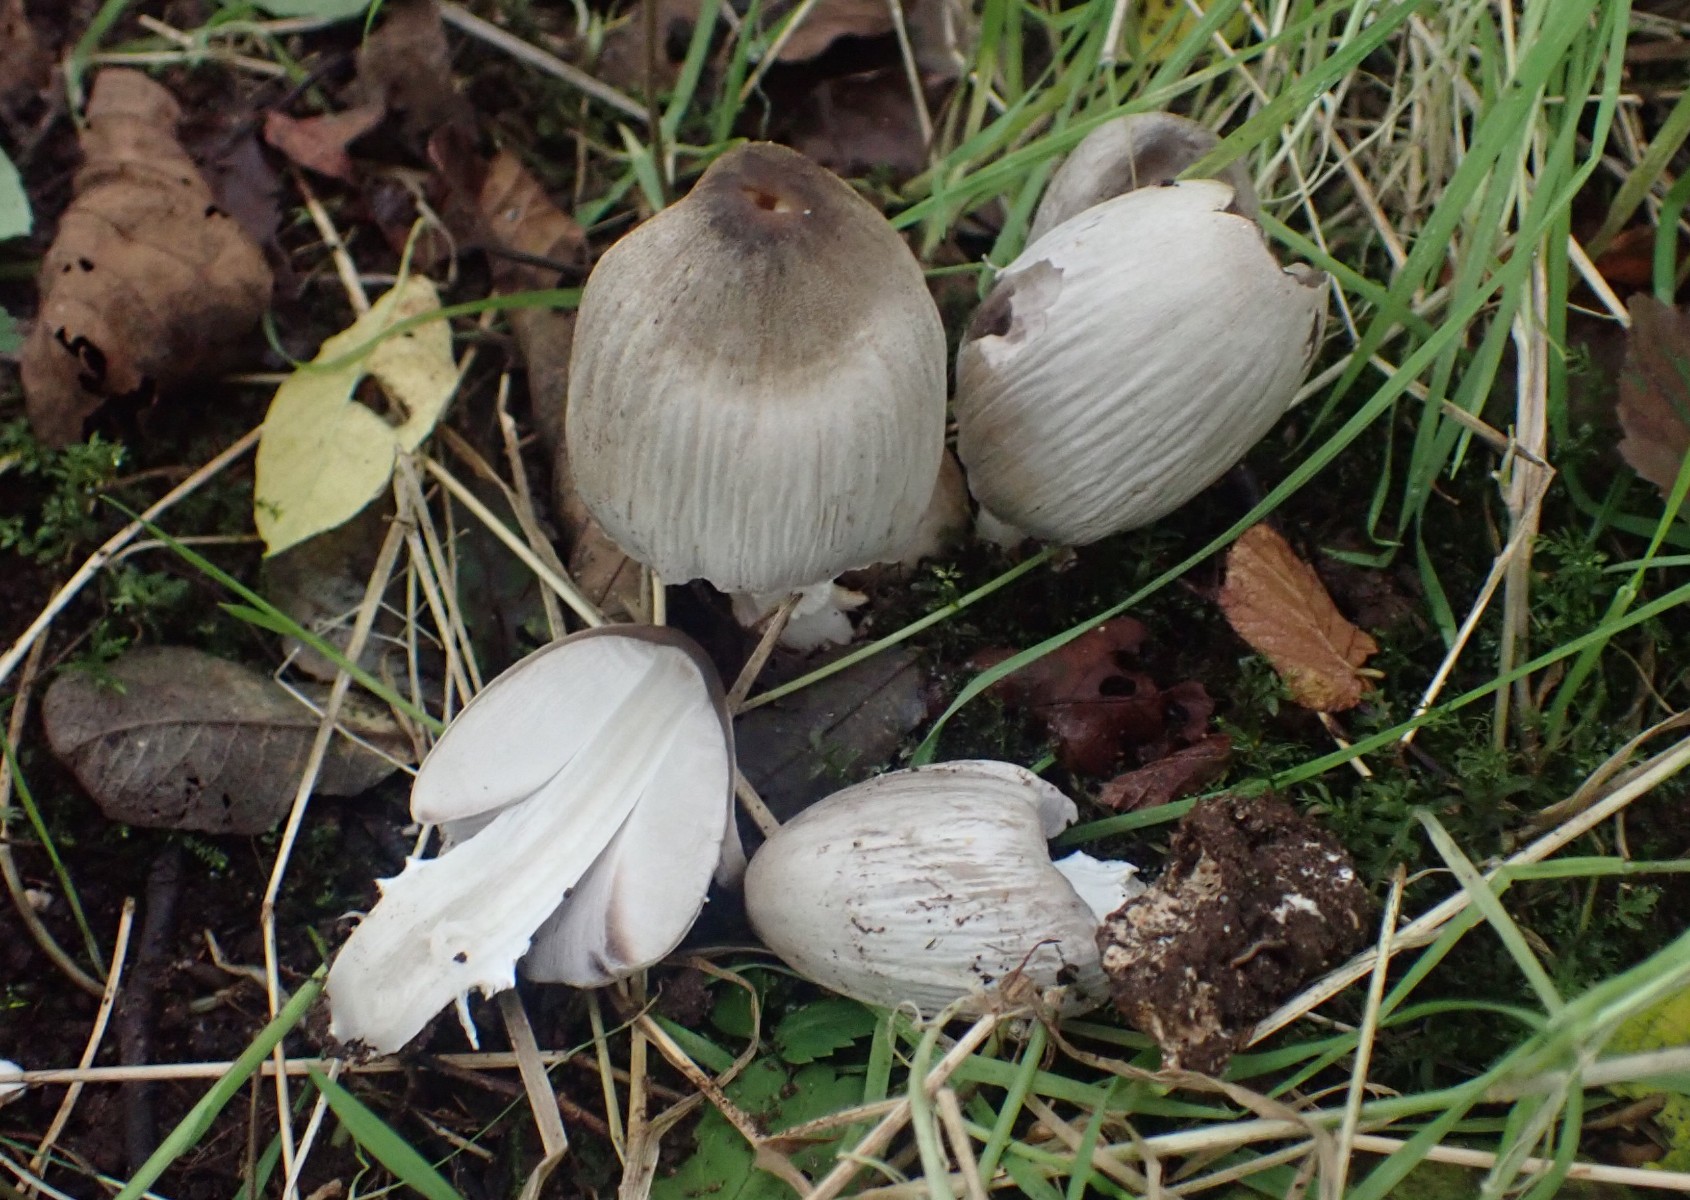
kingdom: Fungi
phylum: Basidiomycota
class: Agaricomycetes
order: Agaricales
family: Psathyrellaceae
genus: Coprinopsis
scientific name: Coprinopsis atramentaria
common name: almindelig blækhat
